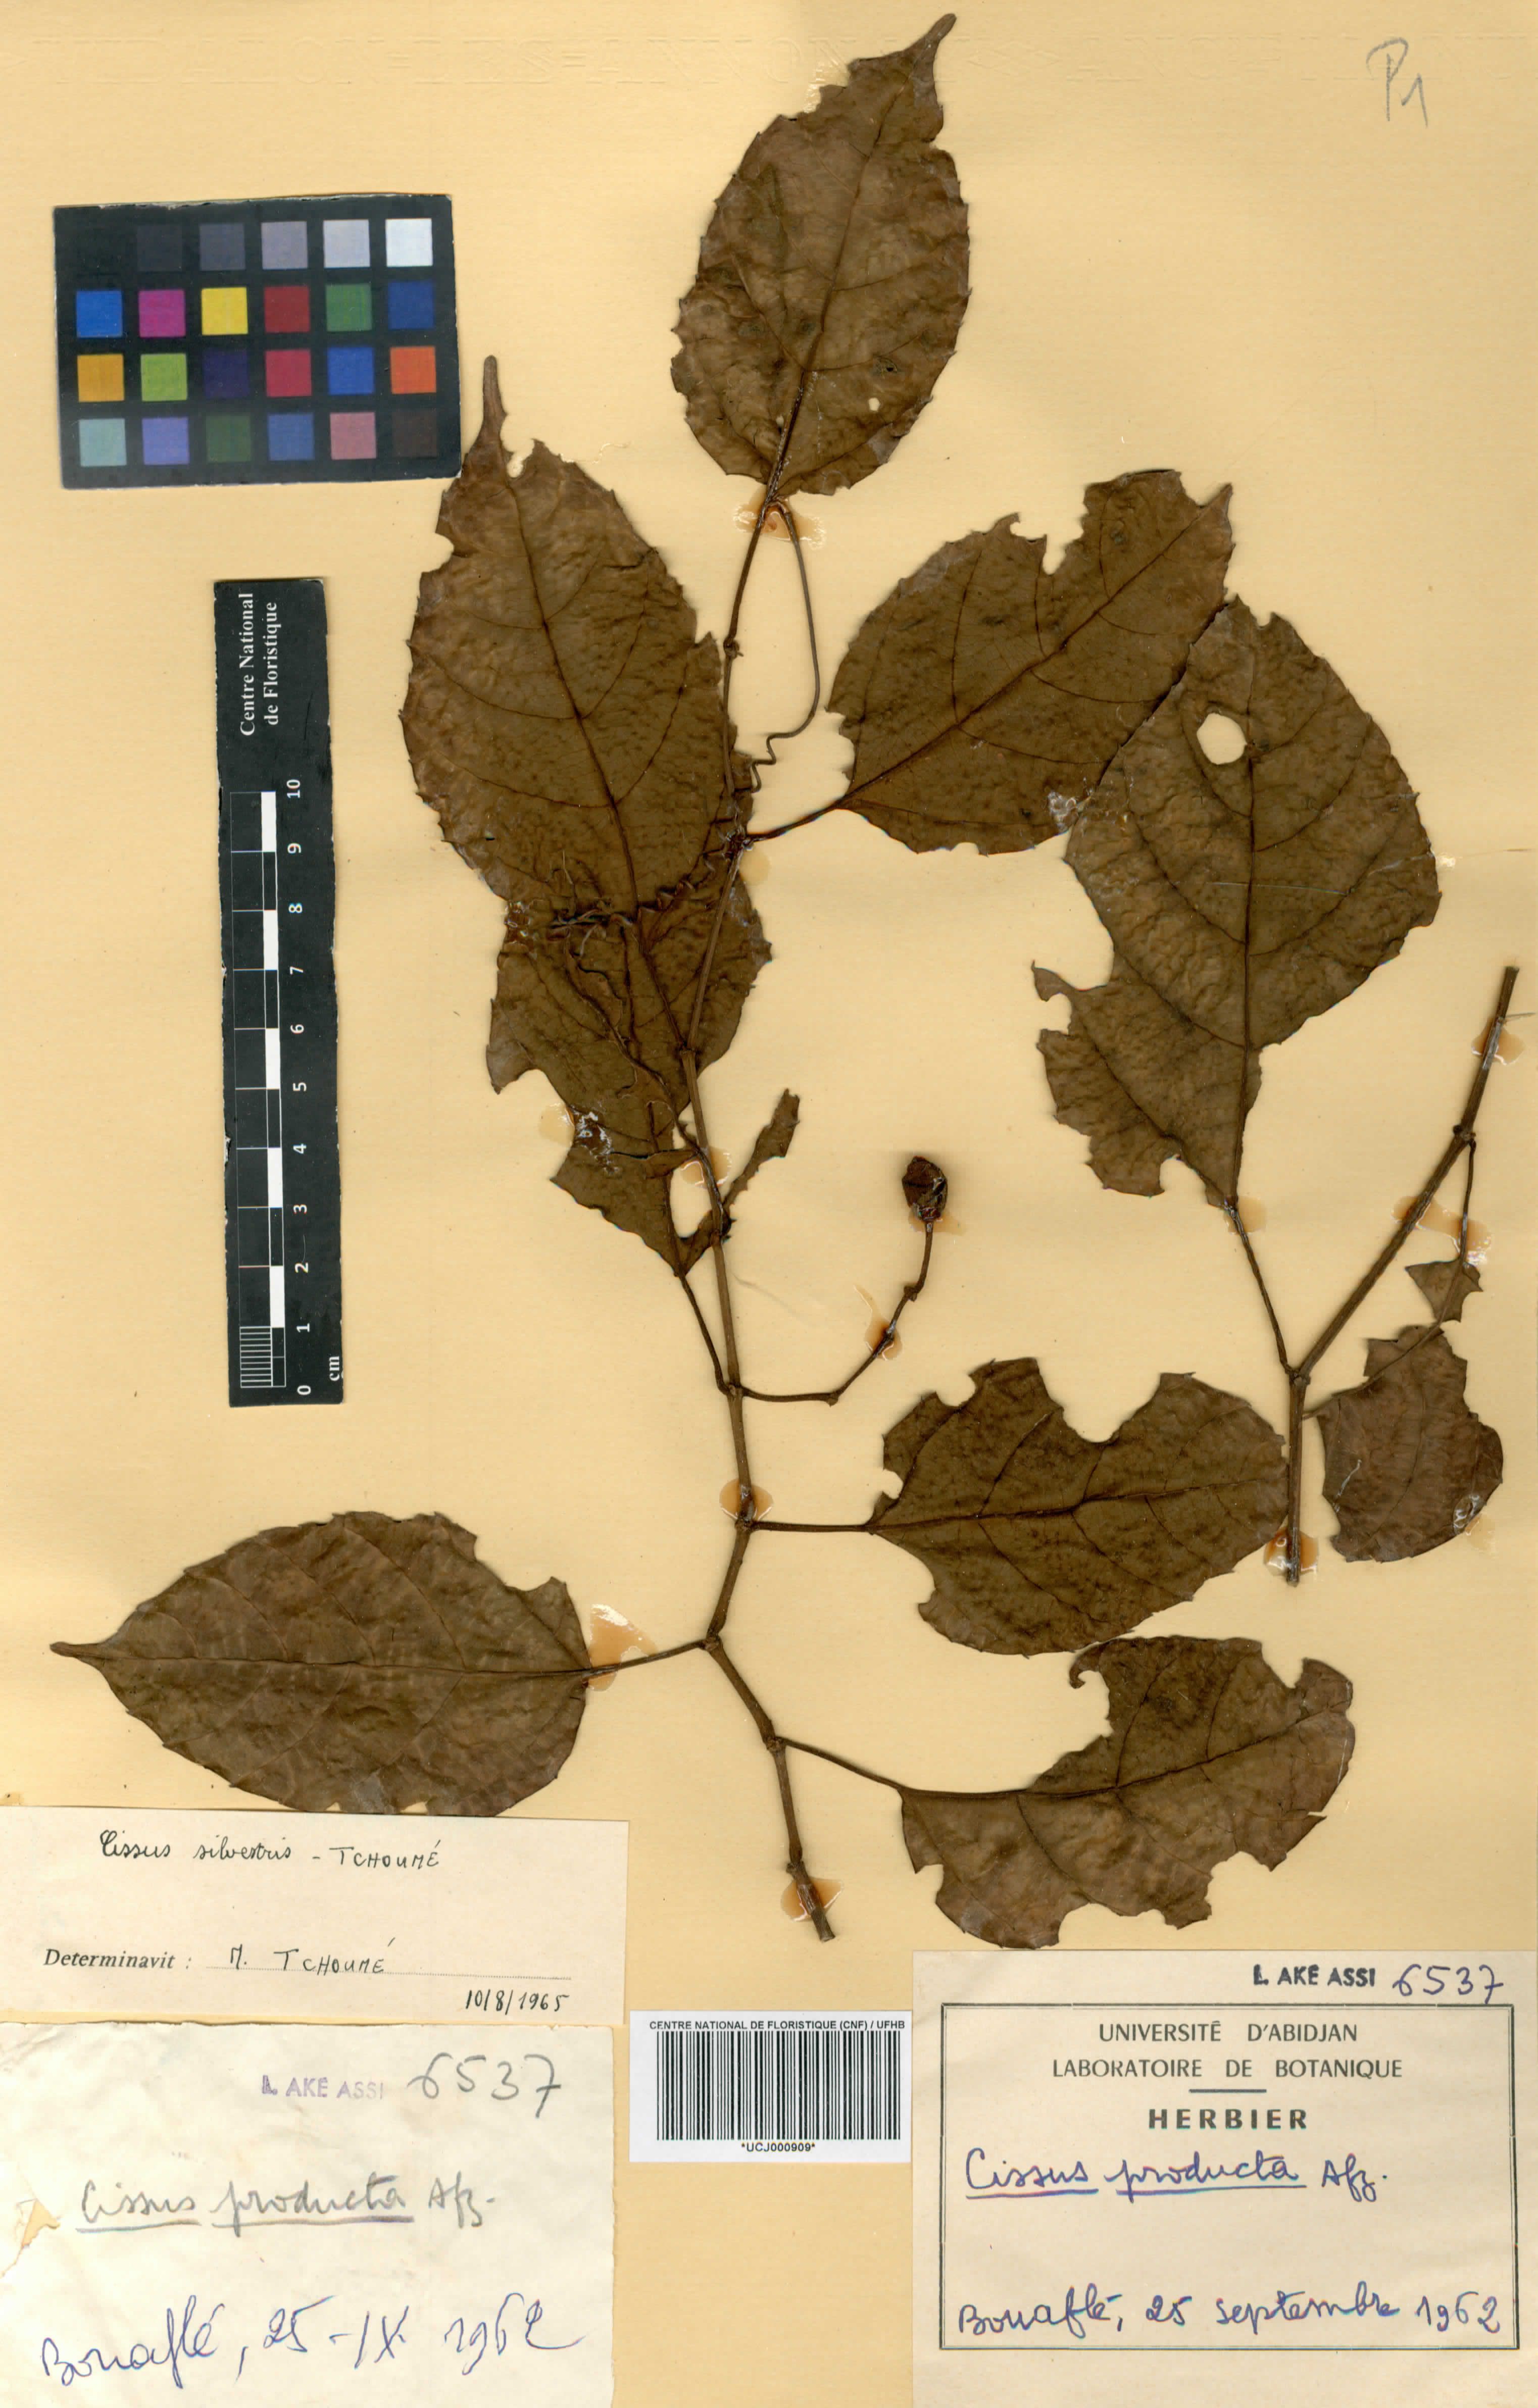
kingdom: Plantae
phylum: Tracheophyta
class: Magnoliopsida
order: Vitales
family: Vitaceae
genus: Cissus
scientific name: Cissus producta
